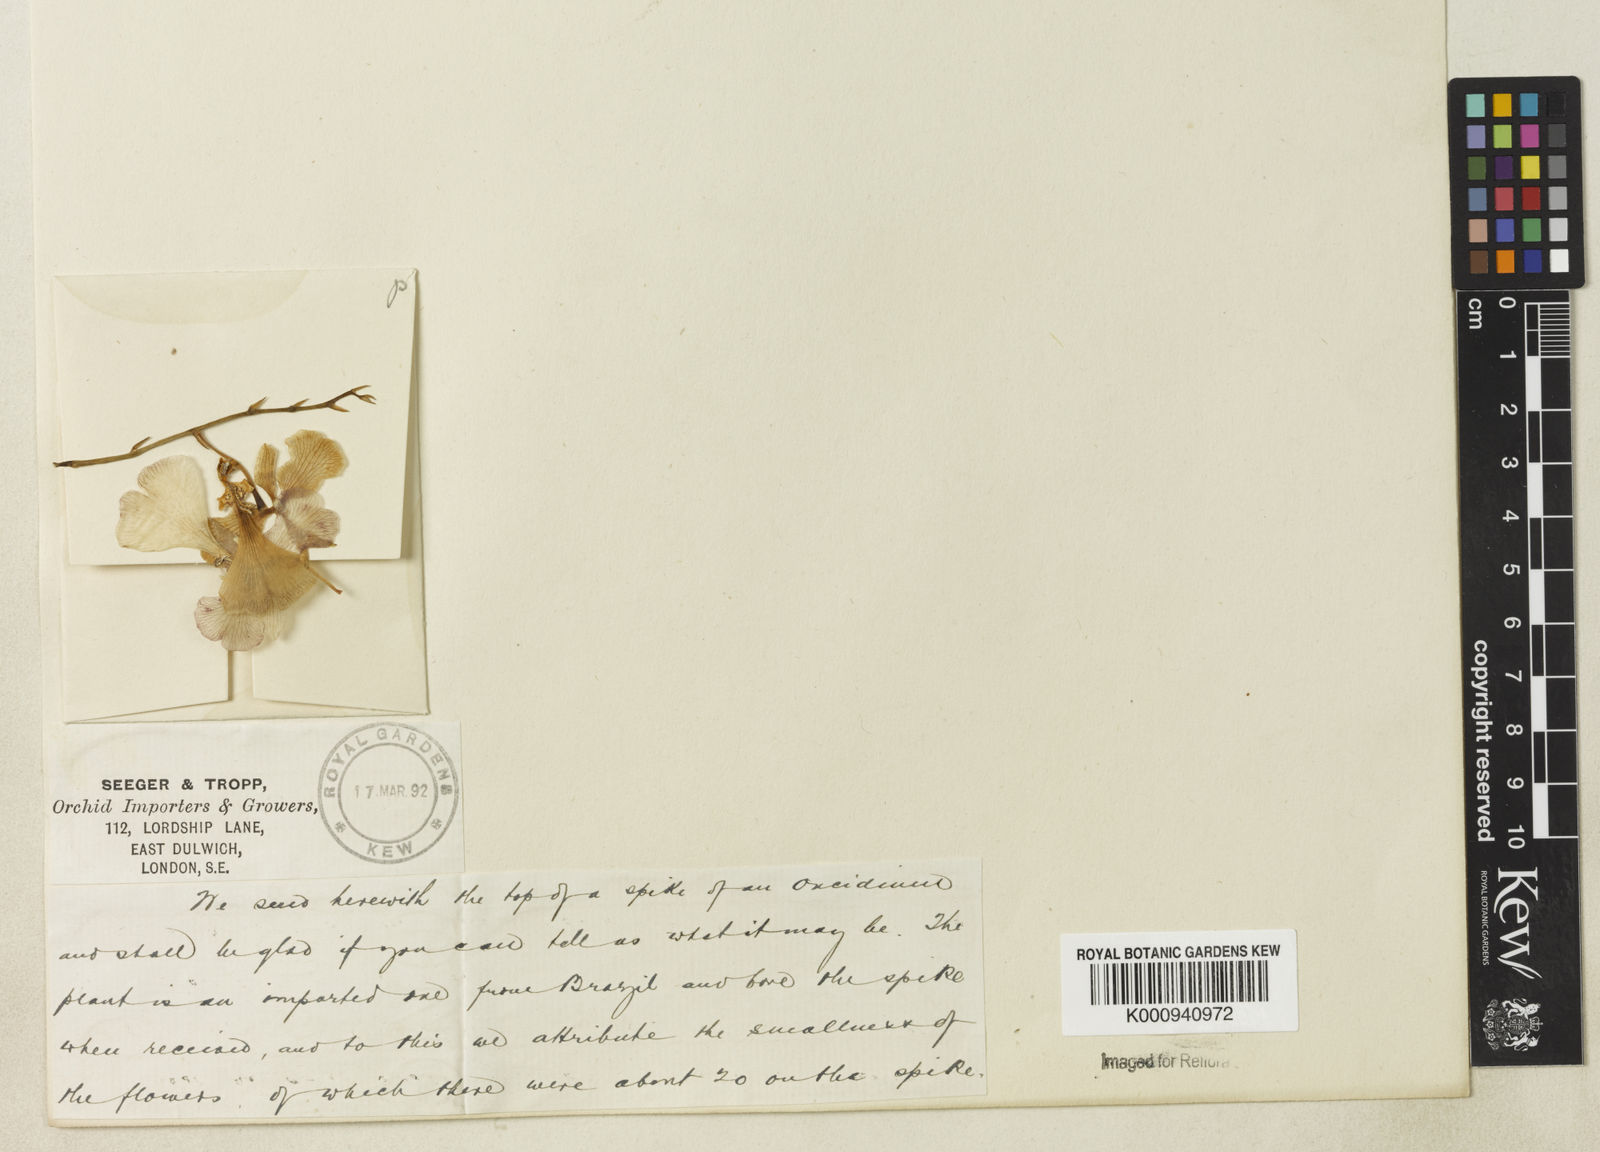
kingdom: Plantae
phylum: Tracheophyta
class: Liliopsida
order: Asparagales
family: Orchidaceae
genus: Oncidium
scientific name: Oncidium
